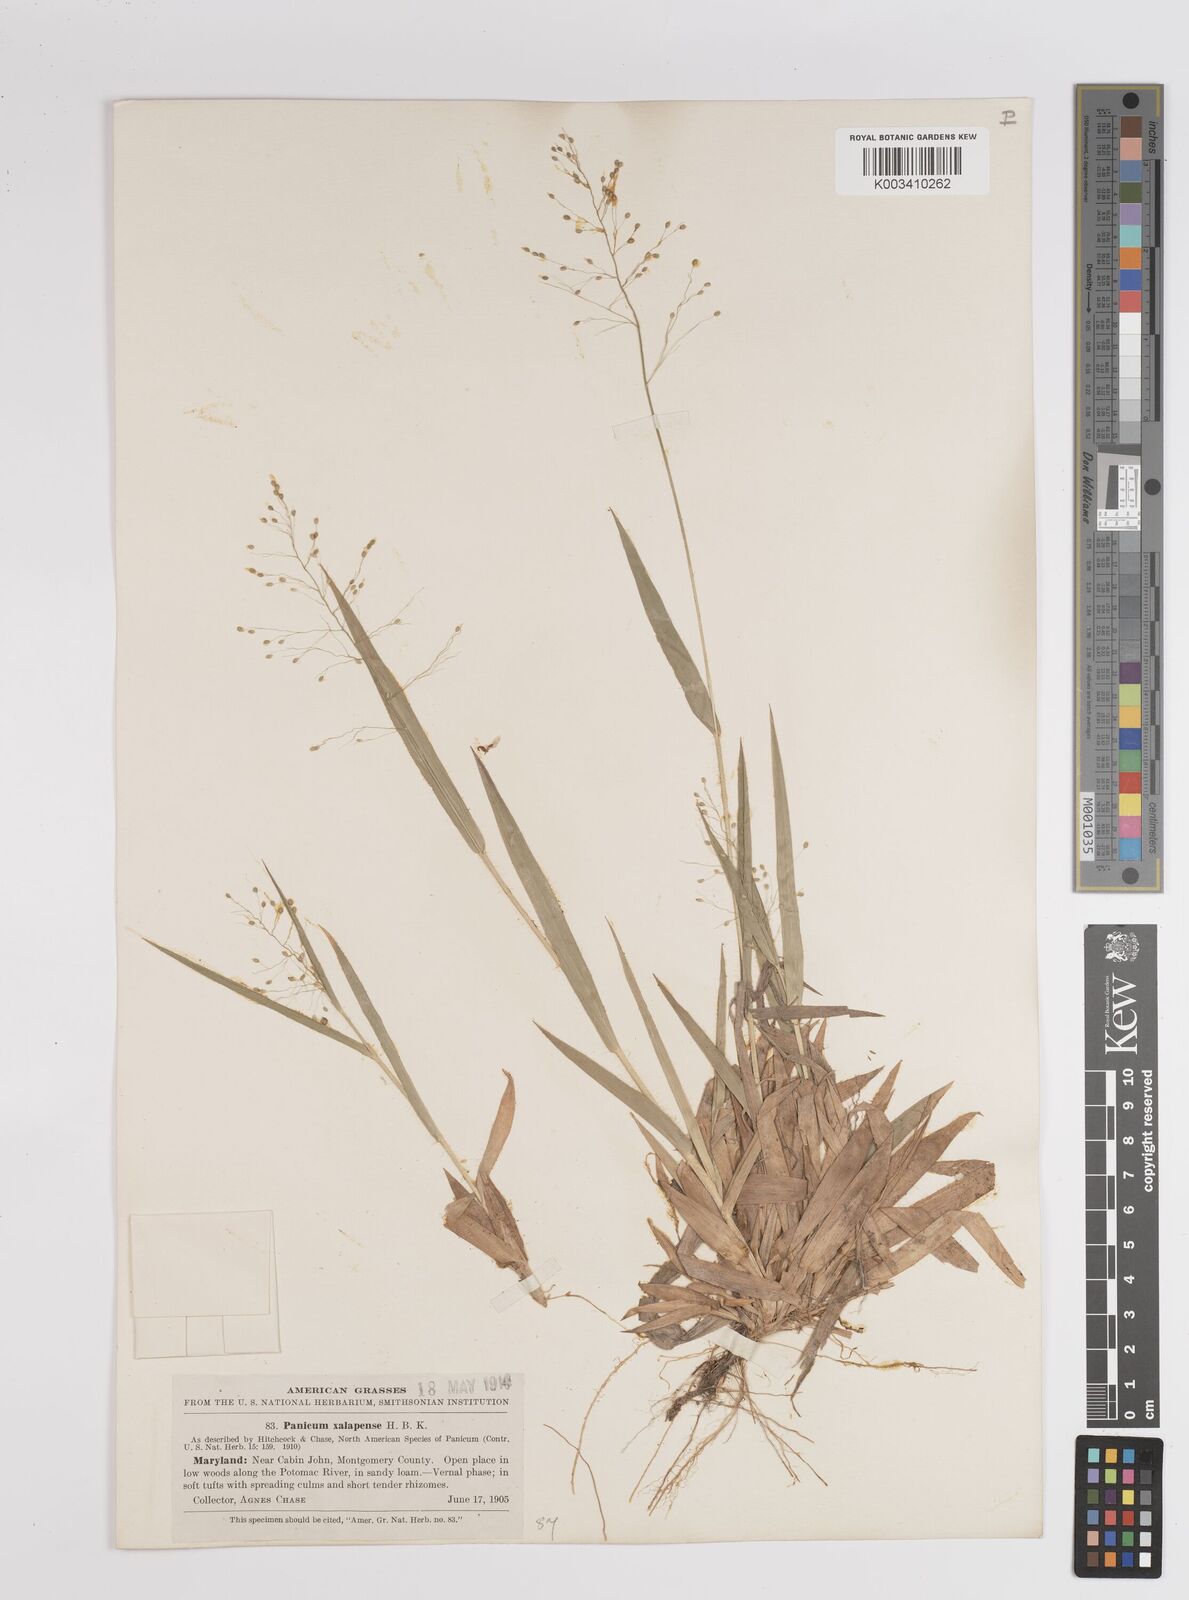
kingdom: Plantae
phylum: Tracheophyta
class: Liliopsida
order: Poales
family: Poaceae
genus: Dichanthelium
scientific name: Dichanthelium laxiflorum
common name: Soft-tuft panic grass
